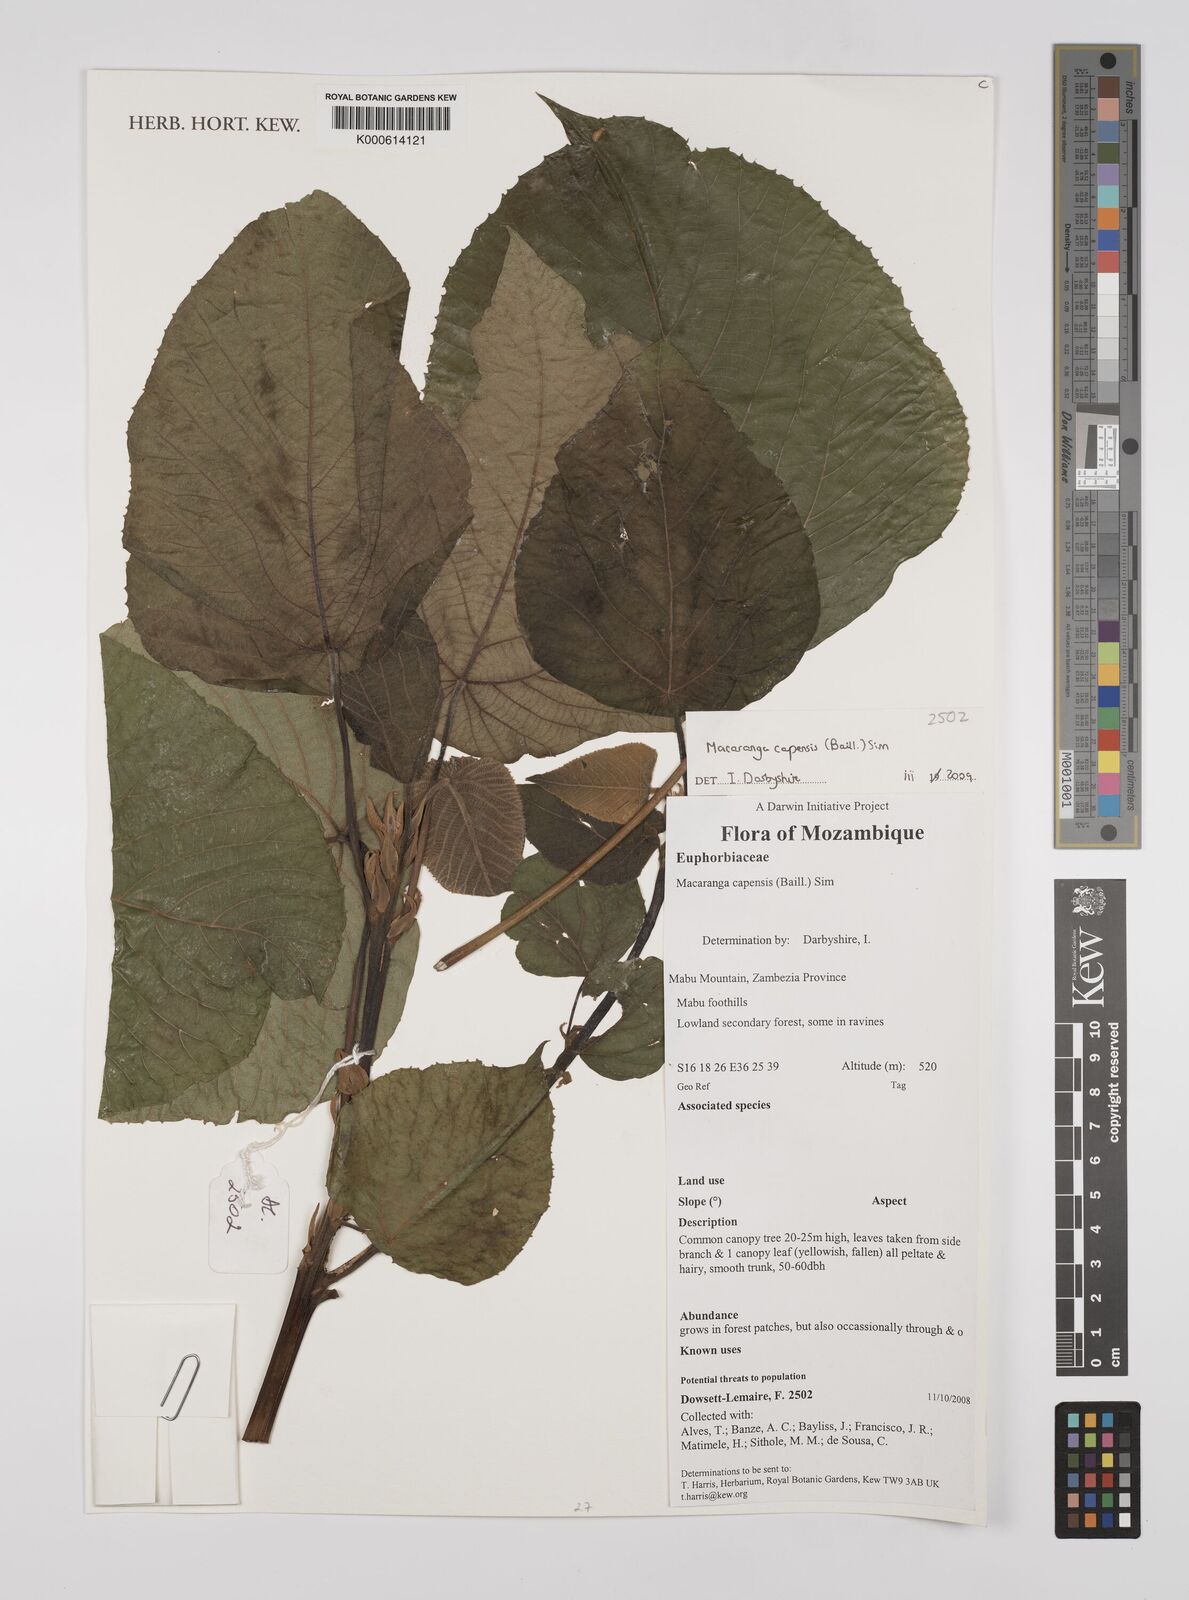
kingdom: Plantae
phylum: Tracheophyta
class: Magnoliopsida
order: Malpighiales
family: Euphorbiaceae
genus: Macaranga
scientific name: Macaranga capensis
